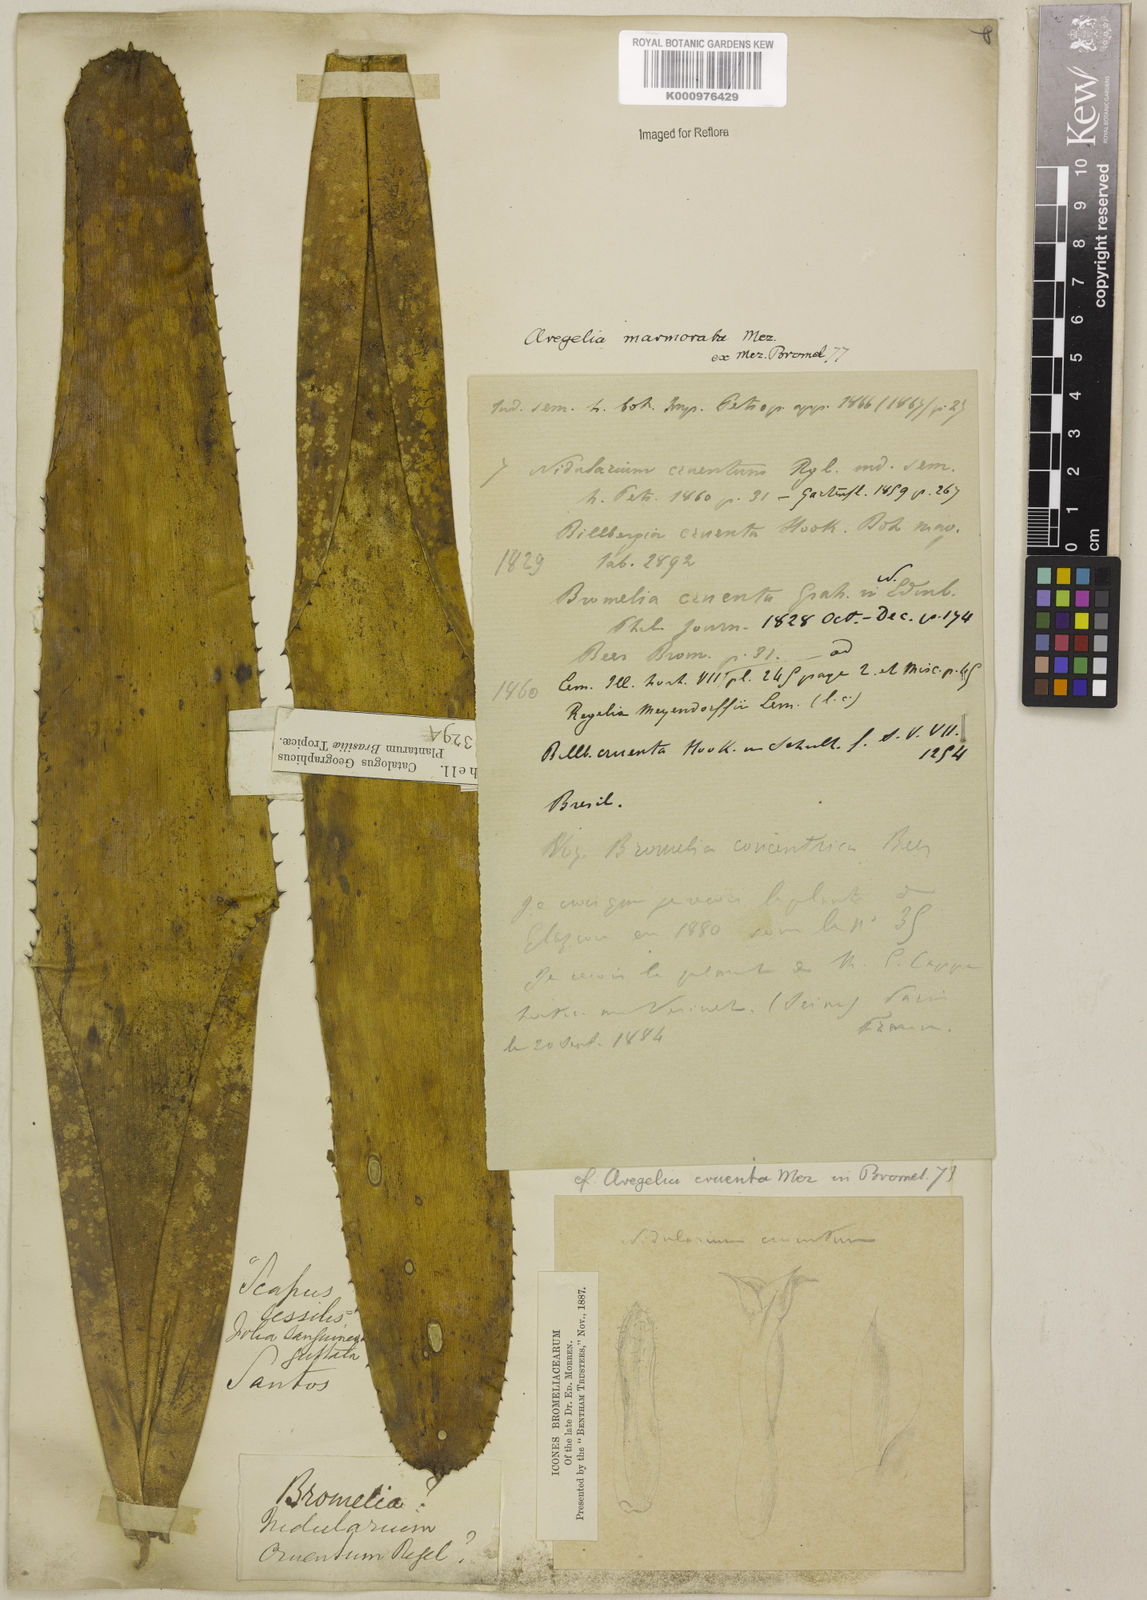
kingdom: Plantae
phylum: Tracheophyta
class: Liliopsida
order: Poales
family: Bromeliaceae
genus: Neoregelia
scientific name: Neoregelia cruenta
